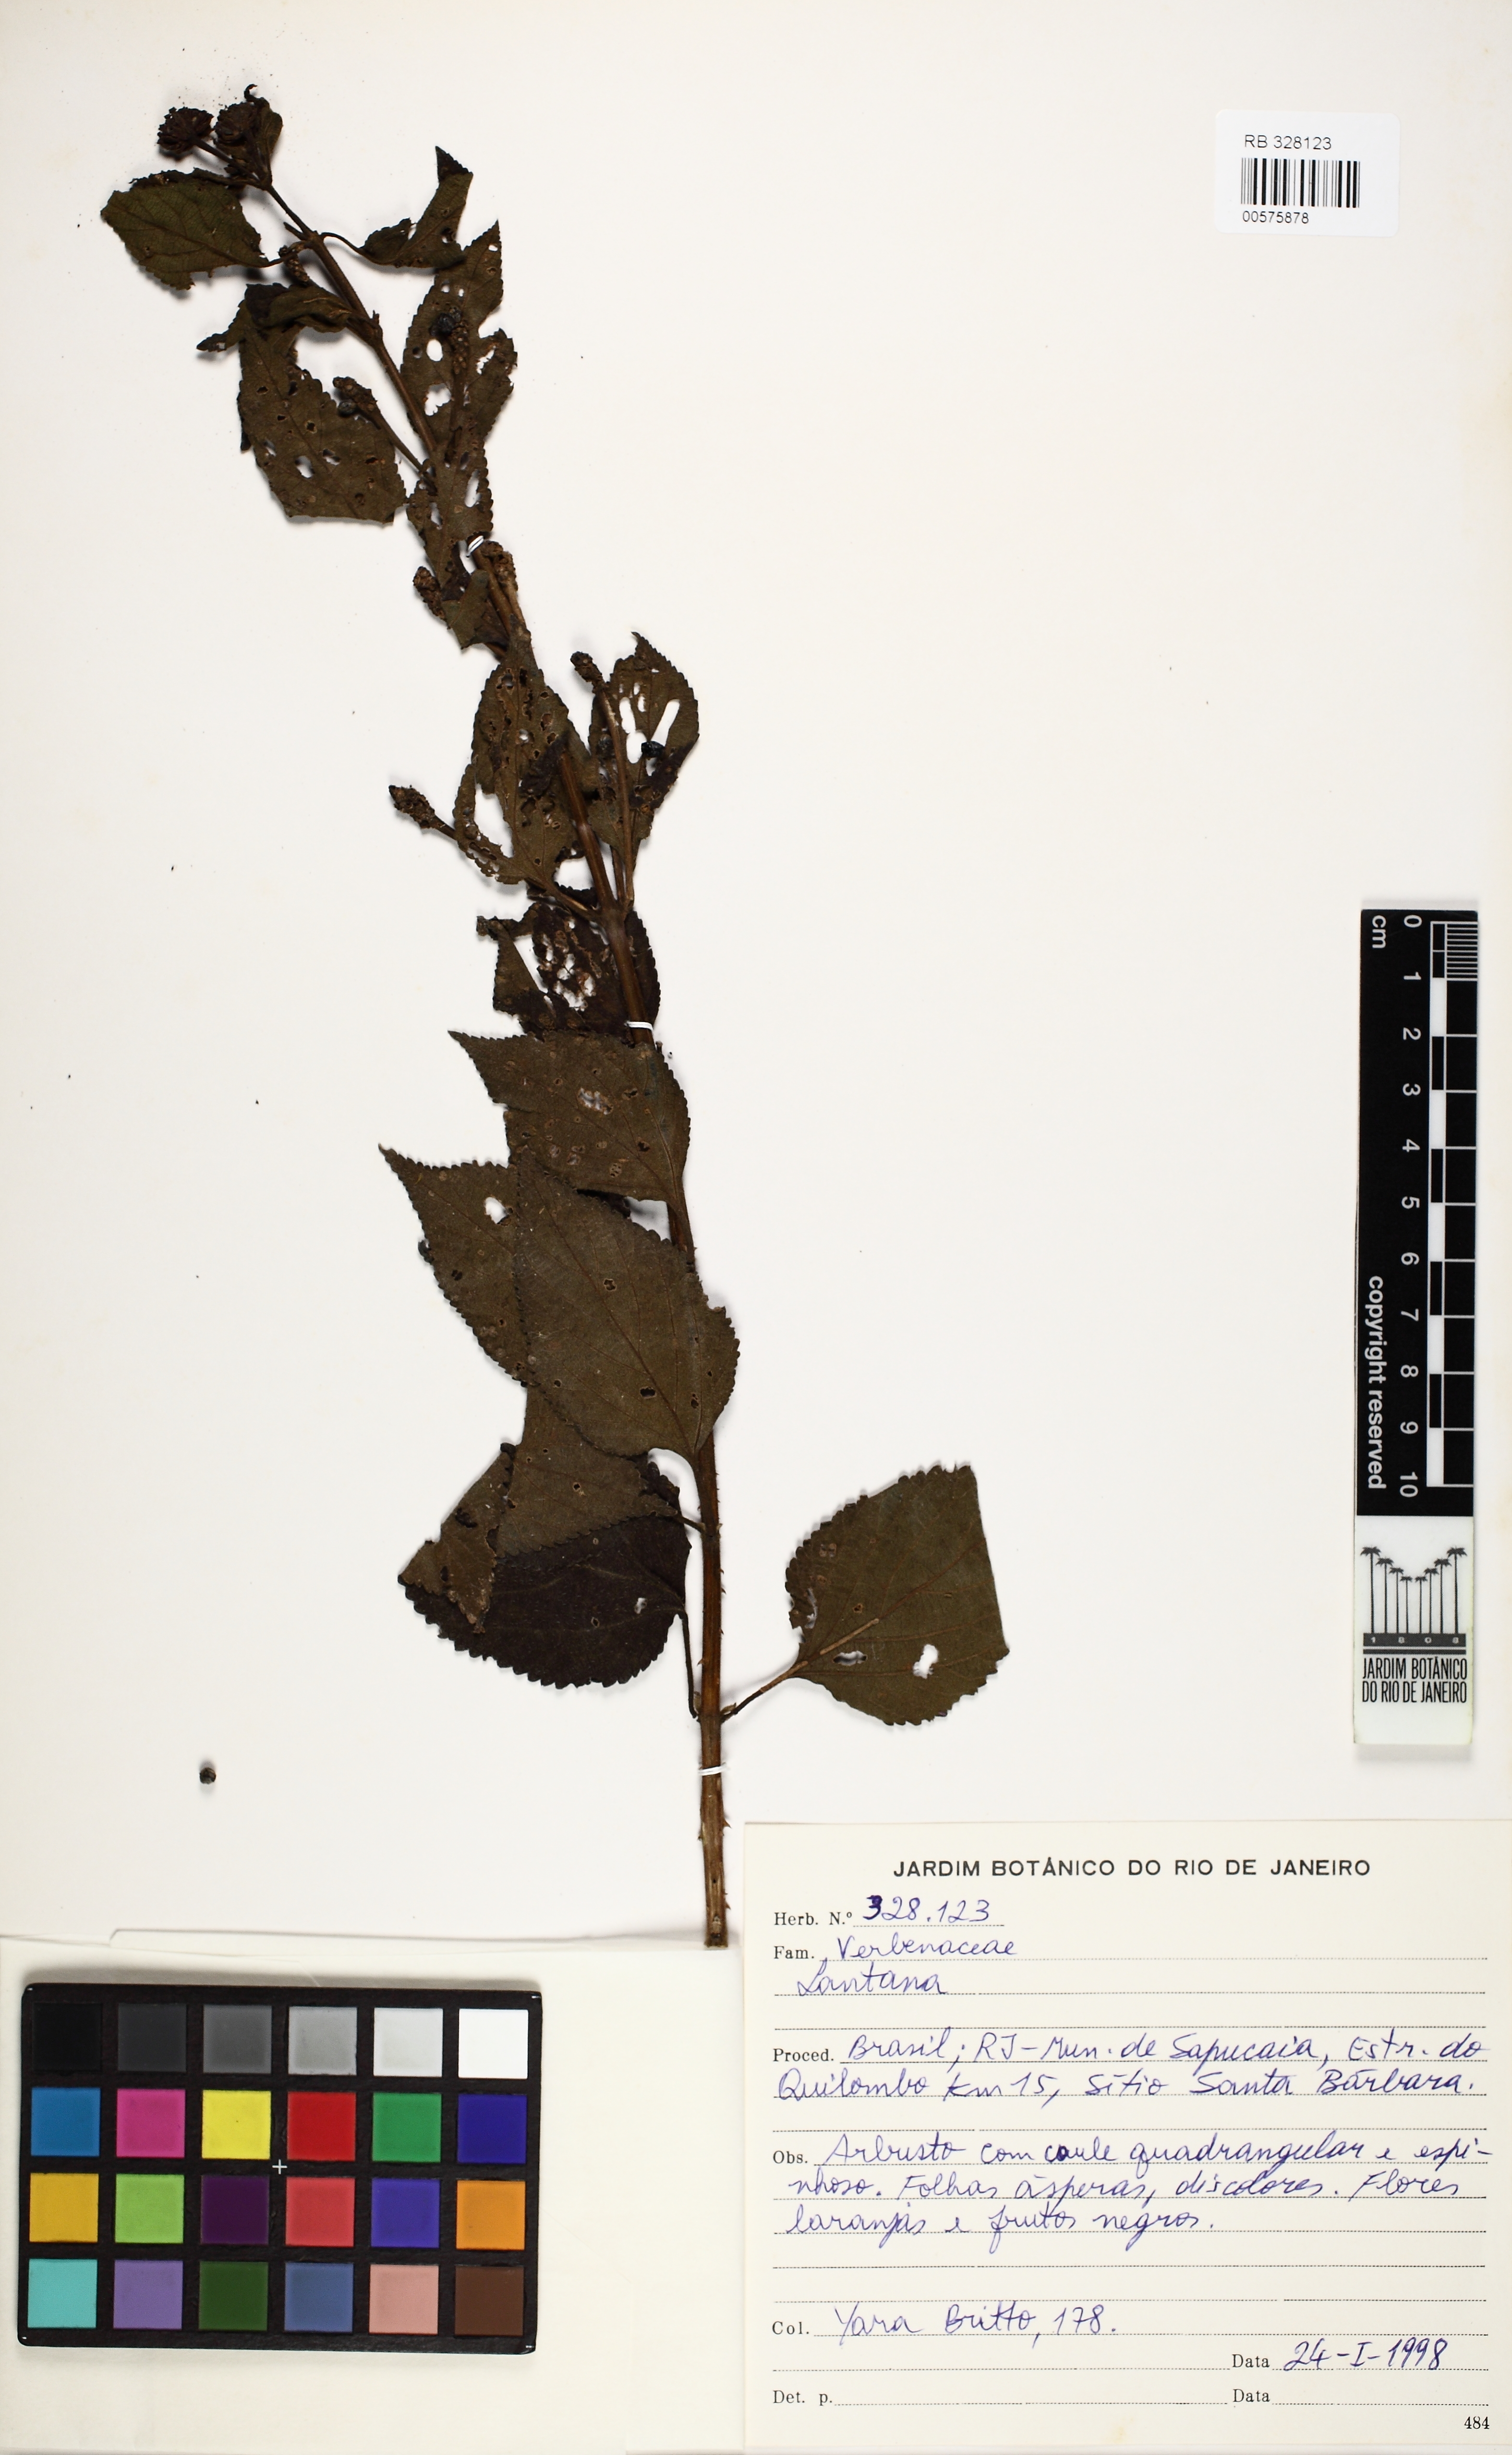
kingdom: Plantae
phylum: Tracheophyta
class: Magnoliopsida
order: Lamiales
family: Verbenaceae
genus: Lantana
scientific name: Lantana
